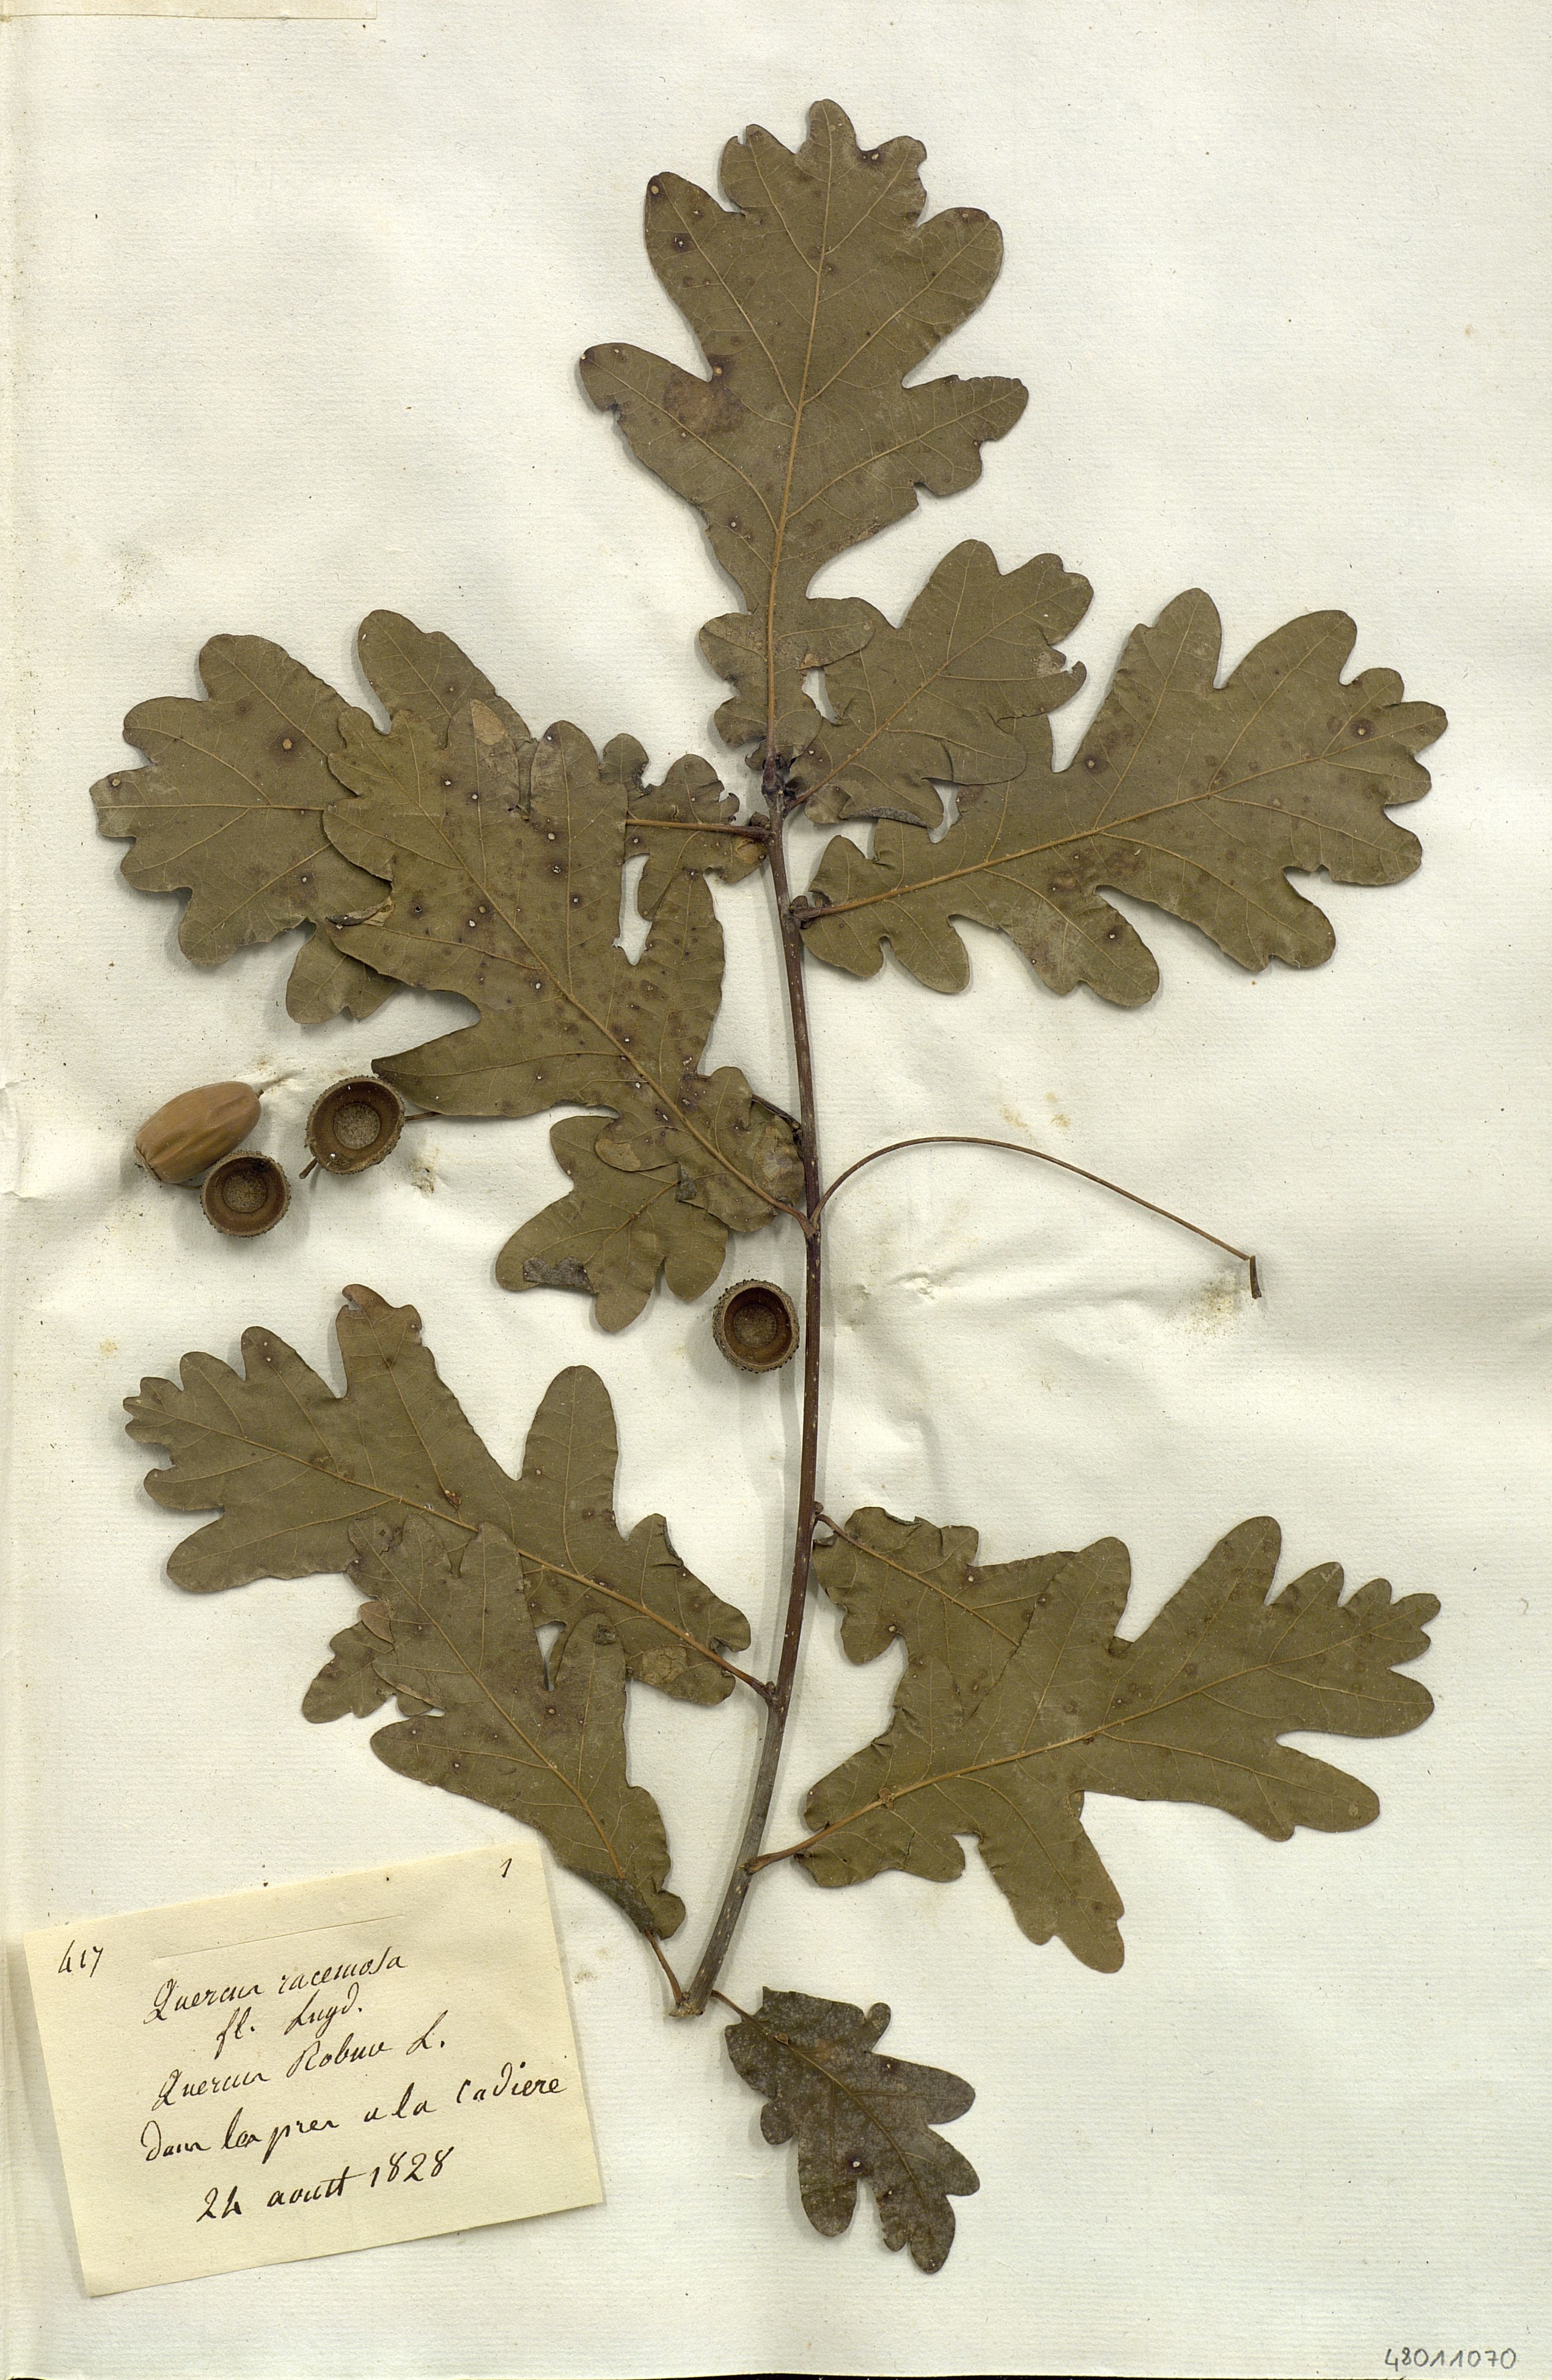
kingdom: Plantae
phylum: Tracheophyta
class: Magnoliopsida
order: Fagales
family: Fagaceae
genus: Quercus
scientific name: Quercus robur
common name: Pedunculate oak
